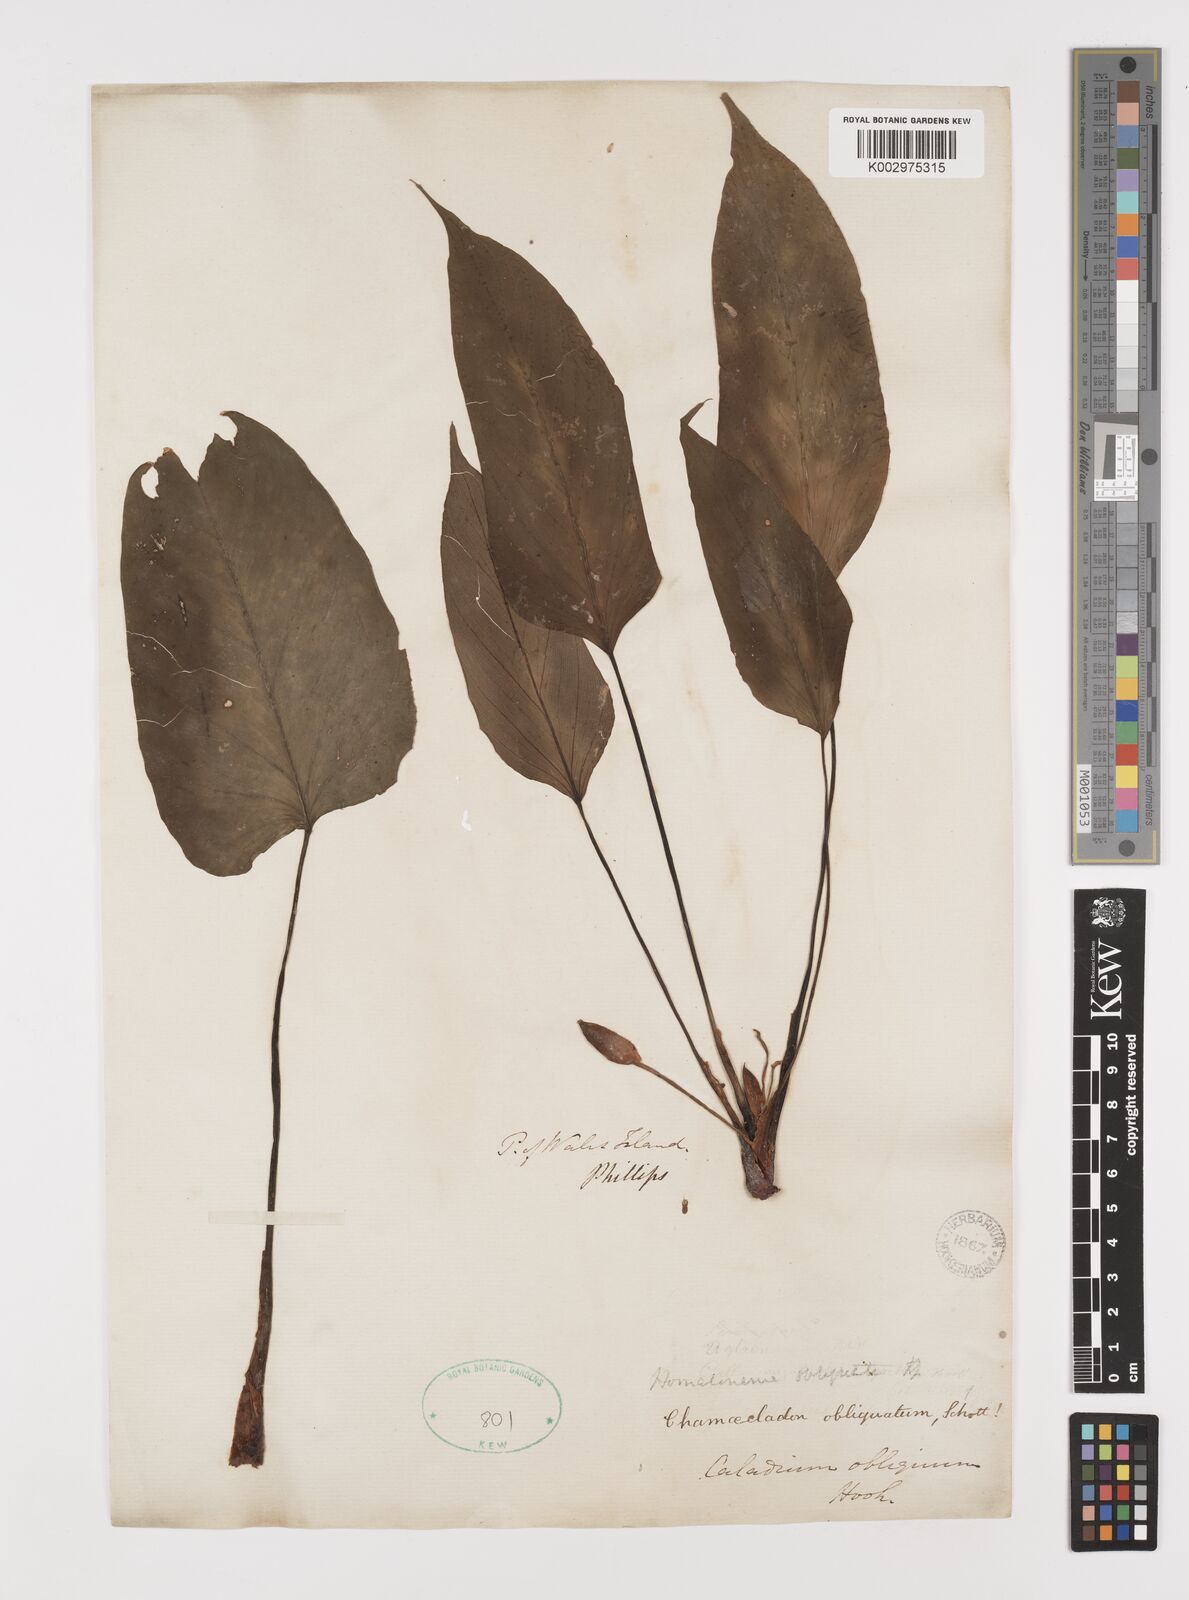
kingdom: Plantae
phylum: Tracheophyta
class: Liliopsida
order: Alismatales
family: Araceae
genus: Homalomena
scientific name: Homalomena griffithii
